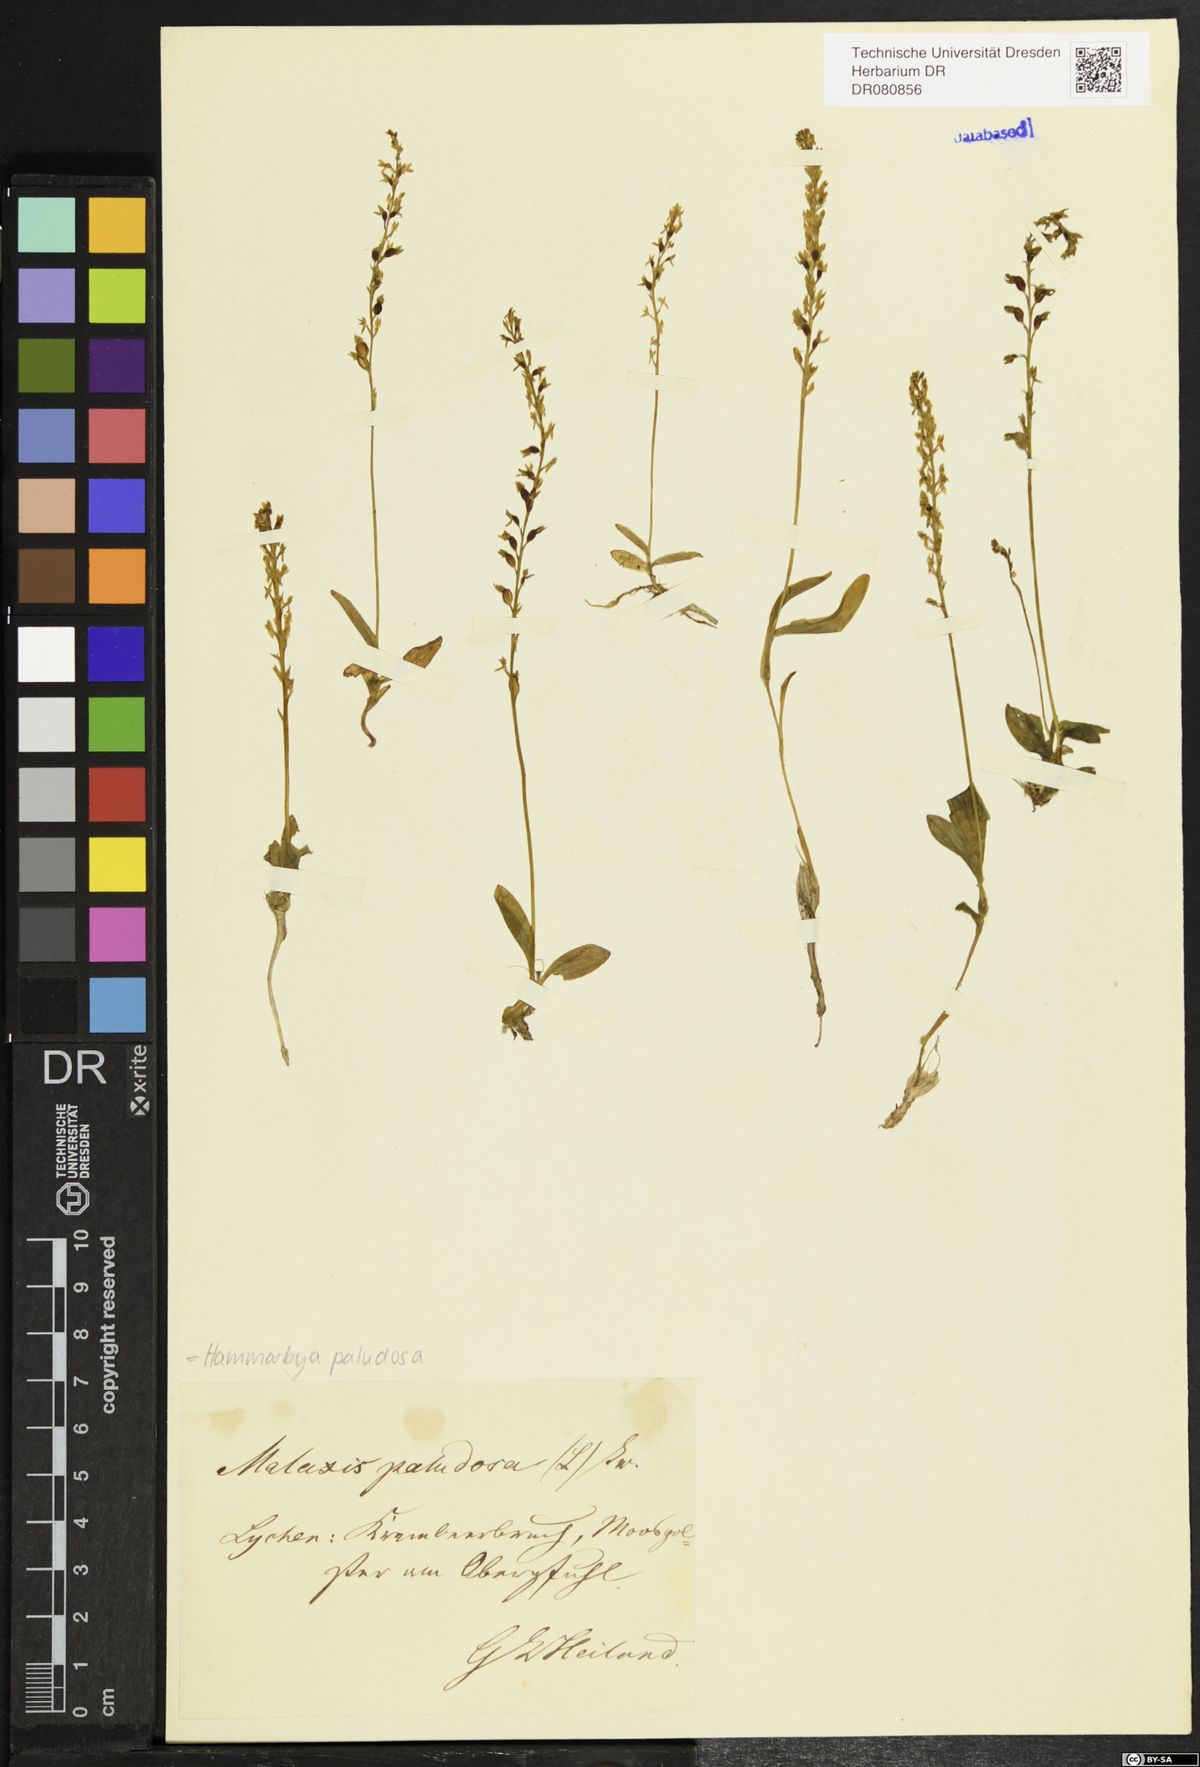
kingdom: Plantae
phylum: Tracheophyta
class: Liliopsida
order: Asparagales
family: Orchidaceae
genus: Hammarbya
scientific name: Hammarbya paludosa
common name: Bog orchid
